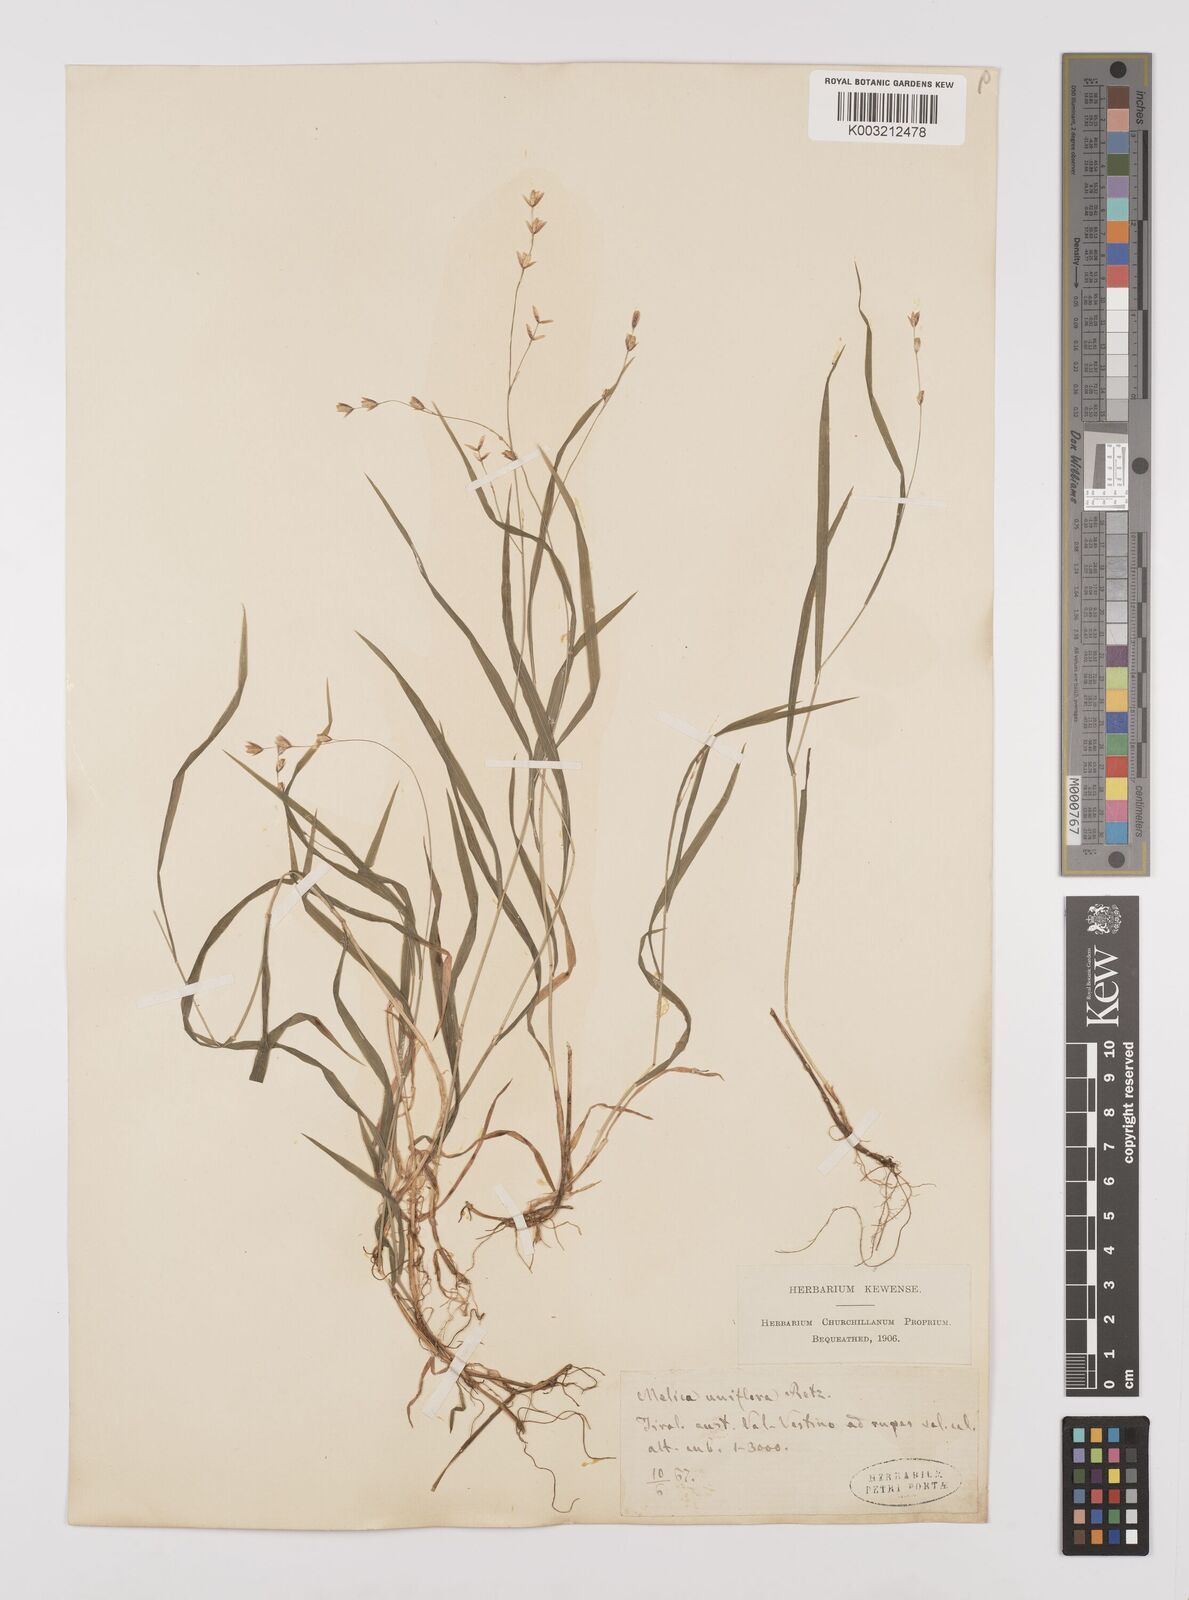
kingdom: Plantae
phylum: Tracheophyta
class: Liliopsida
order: Poales
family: Poaceae
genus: Melica
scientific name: Melica uniflora
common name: Wood melick
